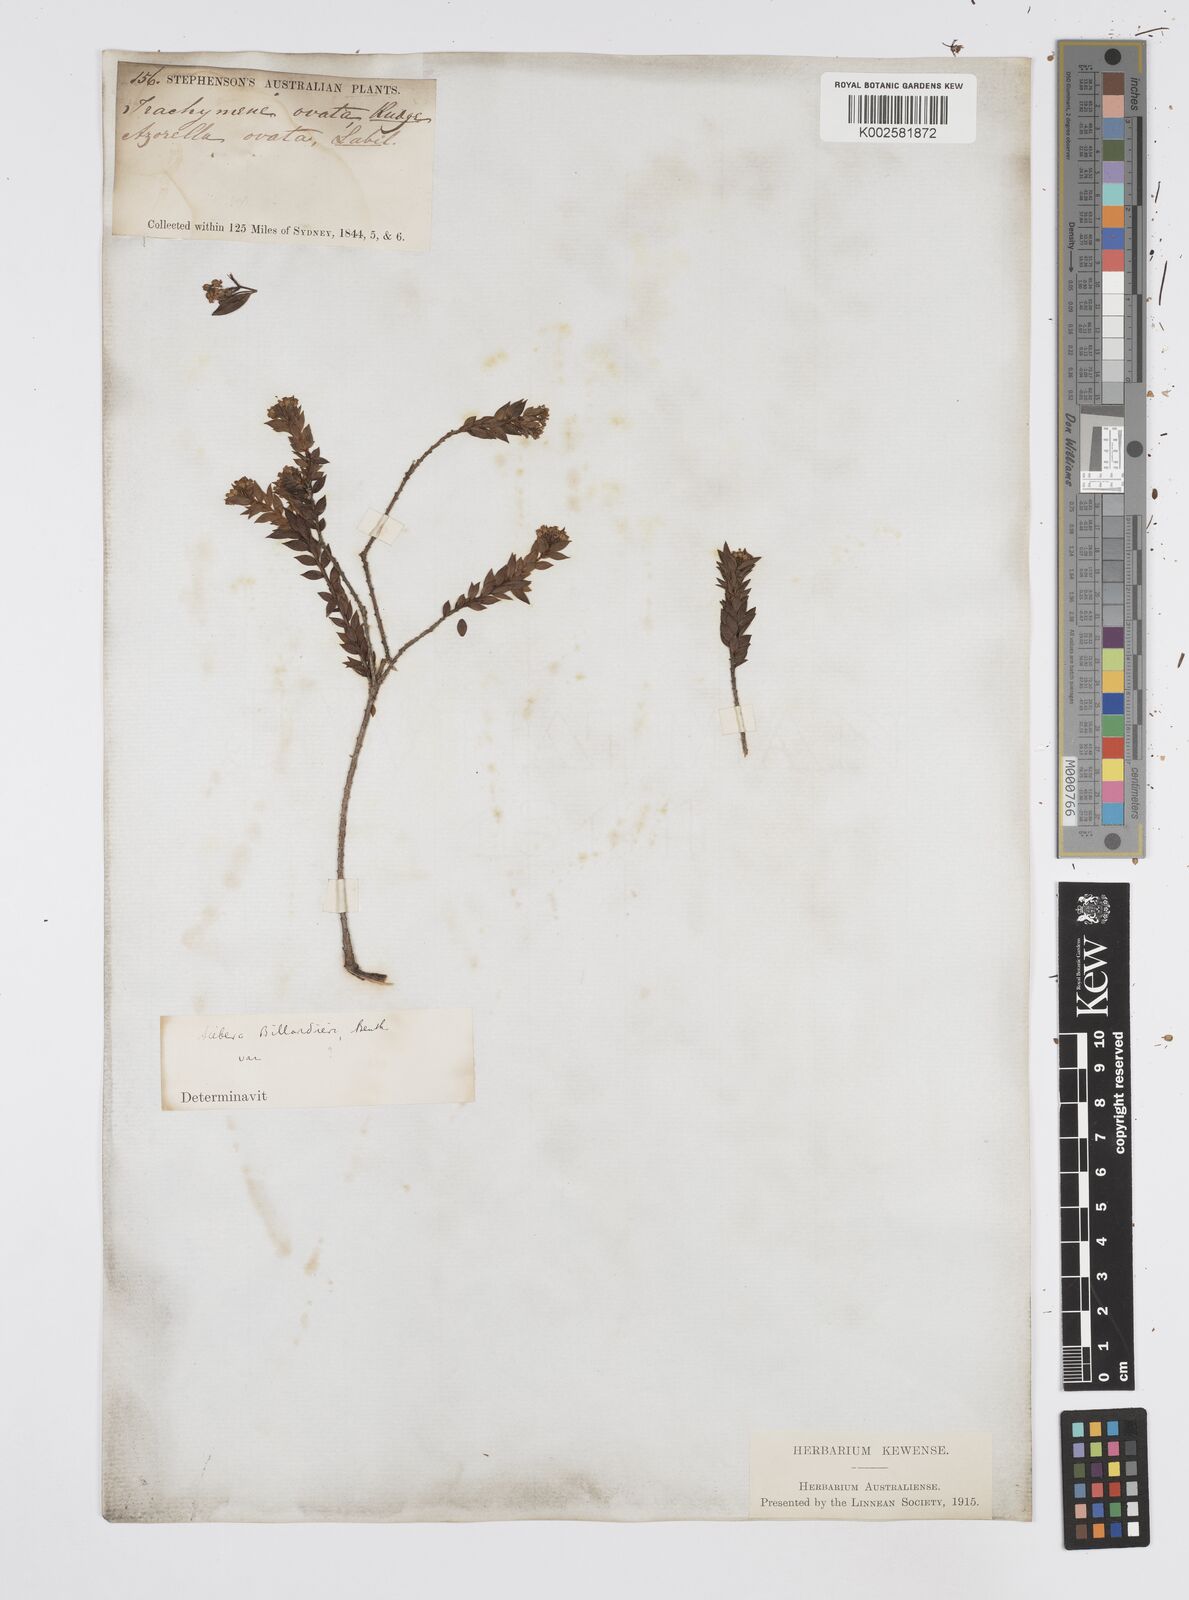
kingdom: Plantae
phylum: Tracheophyta
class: Magnoliopsida
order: Apiales
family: Apiaceae
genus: Platysace
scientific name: Platysace lanceolata
